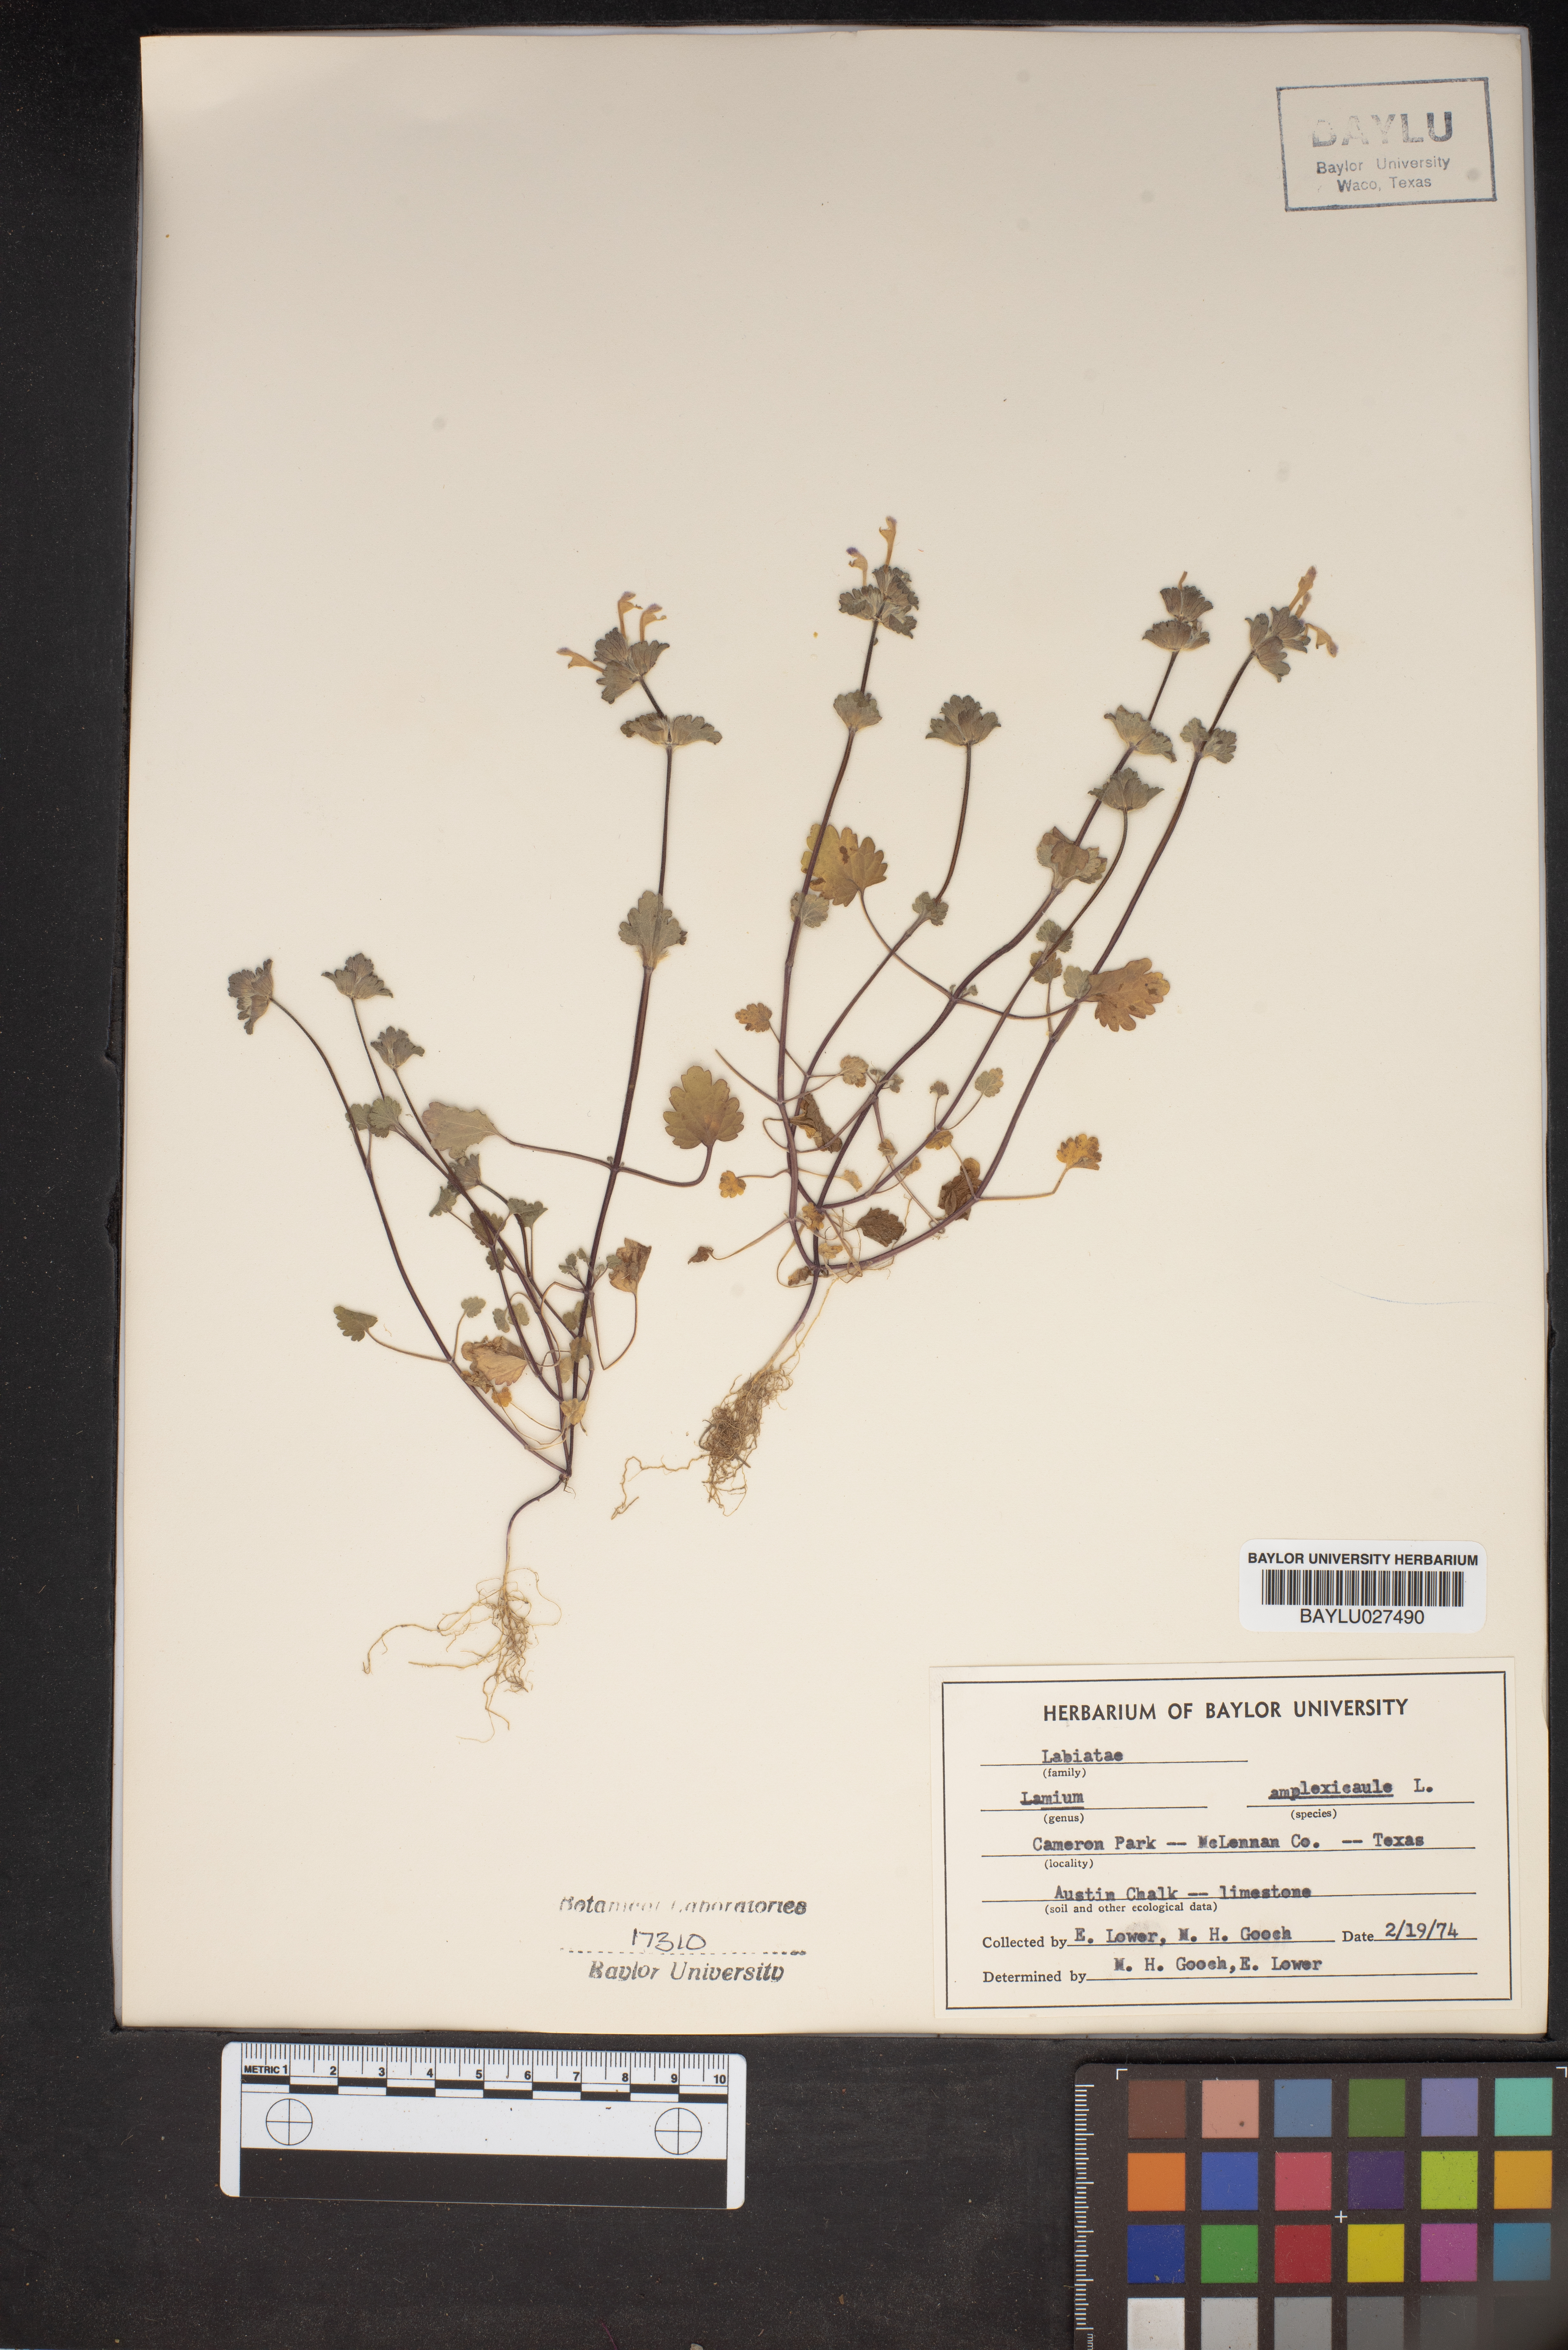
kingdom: Plantae
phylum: Tracheophyta
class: Magnoliopsida
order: Lamiales
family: Lamiaceae
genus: Lamium
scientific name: Lamium amplexicaule
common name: Henbit dead-nettle
